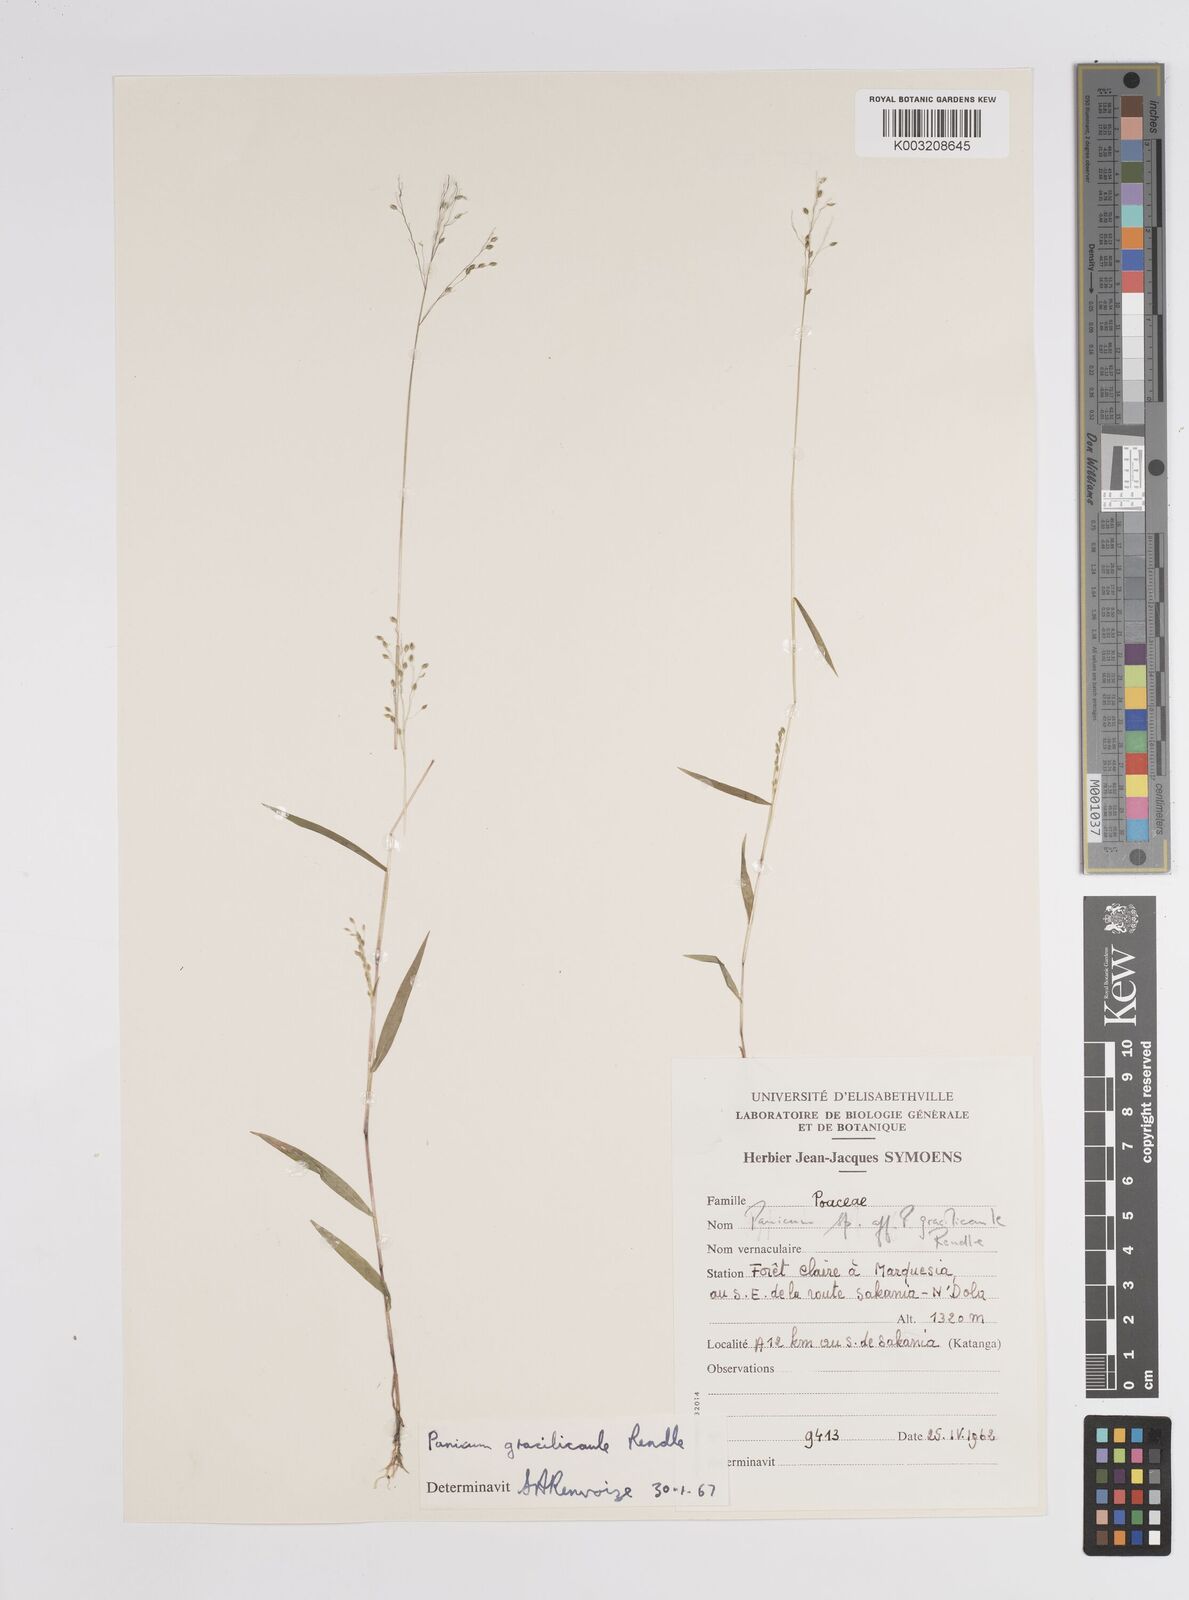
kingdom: Plantae
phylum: Tracheophyta
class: Liliopsida
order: Poales
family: Poaceae
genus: Panicum
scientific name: Panicum
